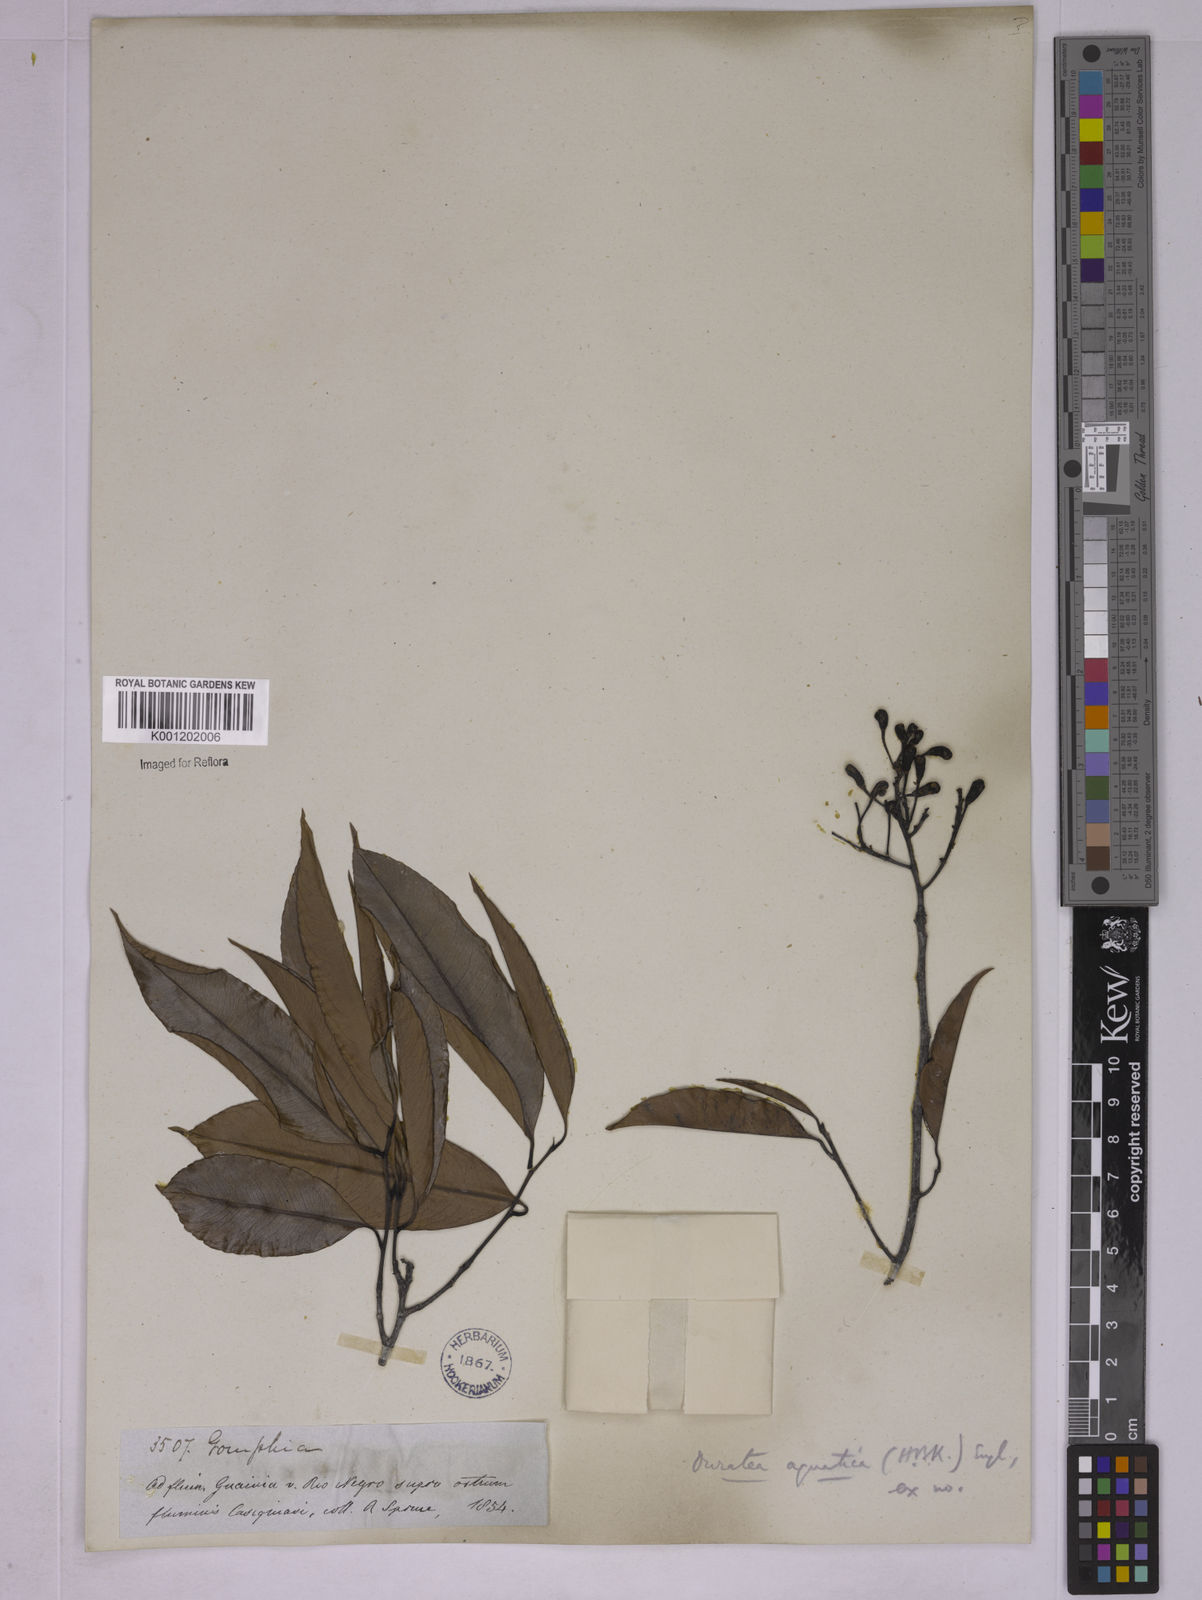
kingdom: Plantae
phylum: Tracheophyta
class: Magnoliopsida
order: Malpighiales
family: Ochnaceae
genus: Ouratea
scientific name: Ouratea multiflora
